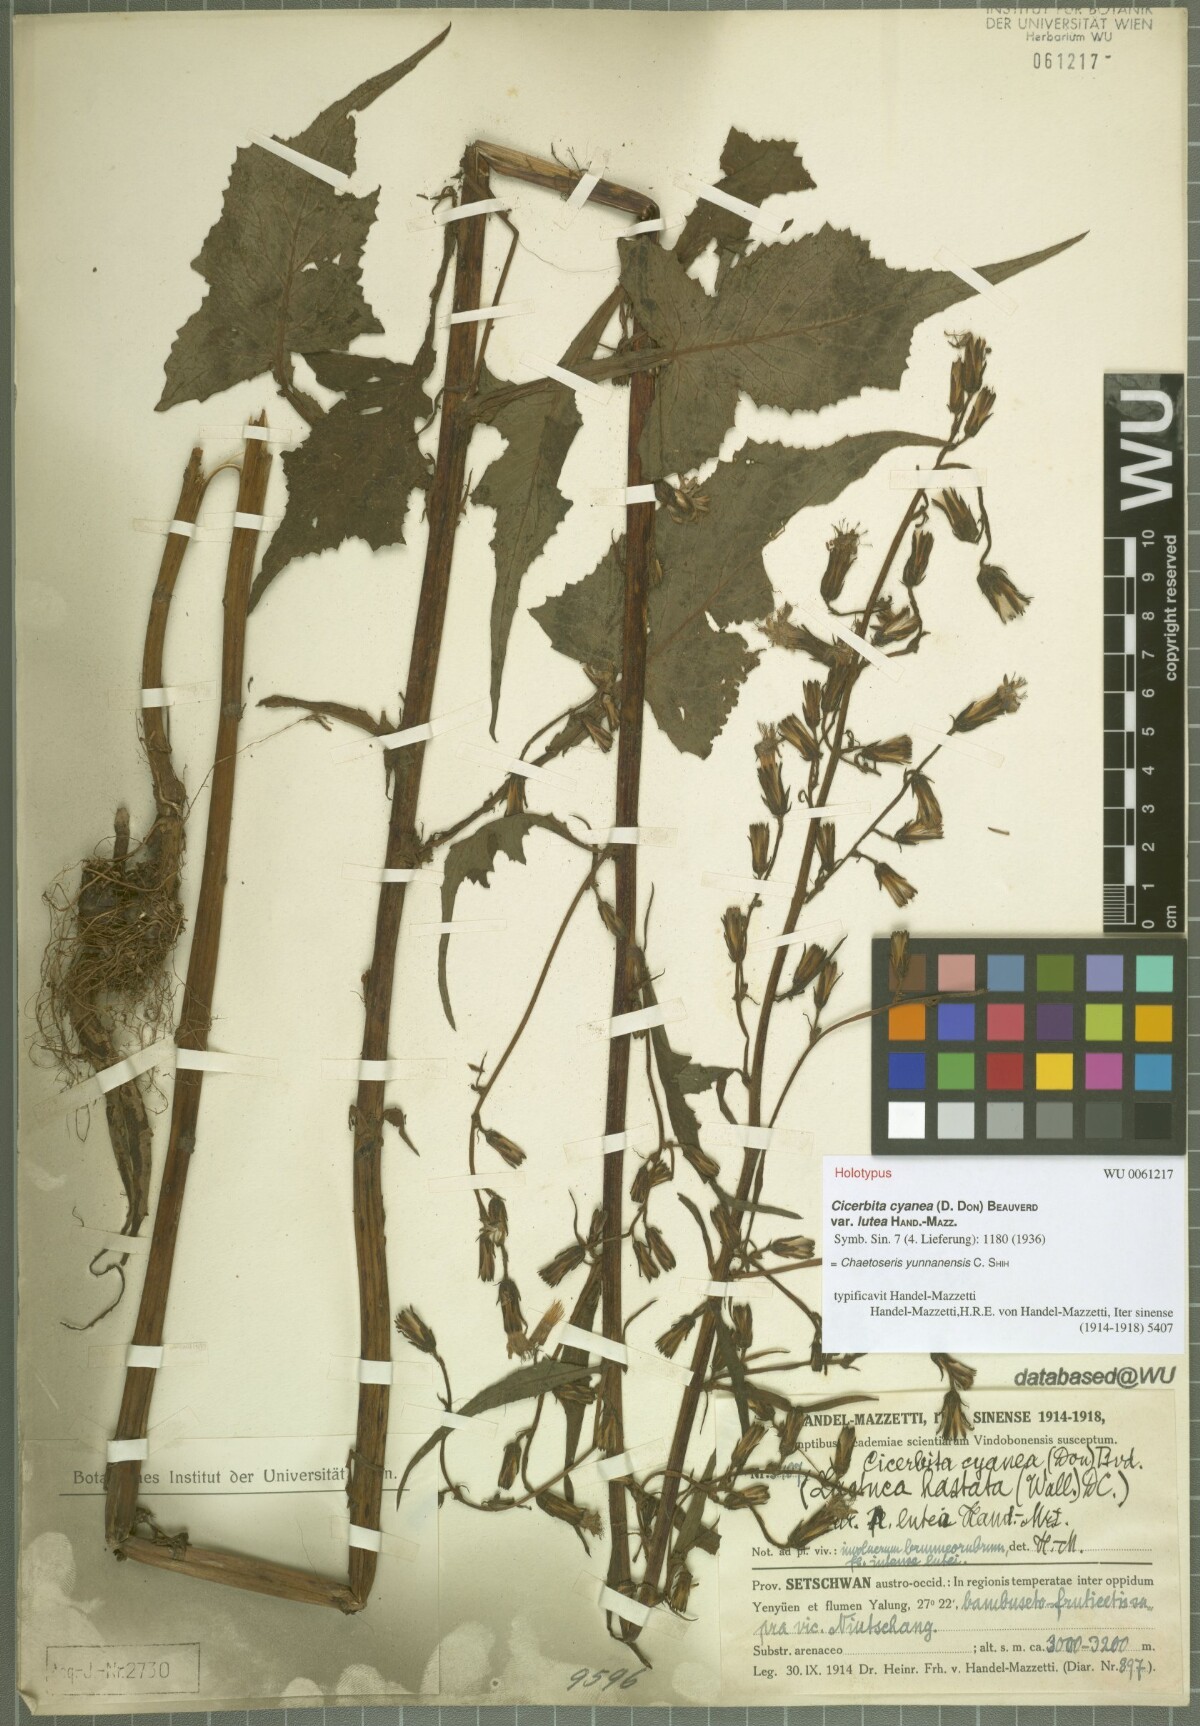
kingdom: Plantae
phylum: Tracheophyta
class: Magnoliopsida
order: Asterales
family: Asteraceae
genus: Melanoseris
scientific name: Melanoseris cyanea
